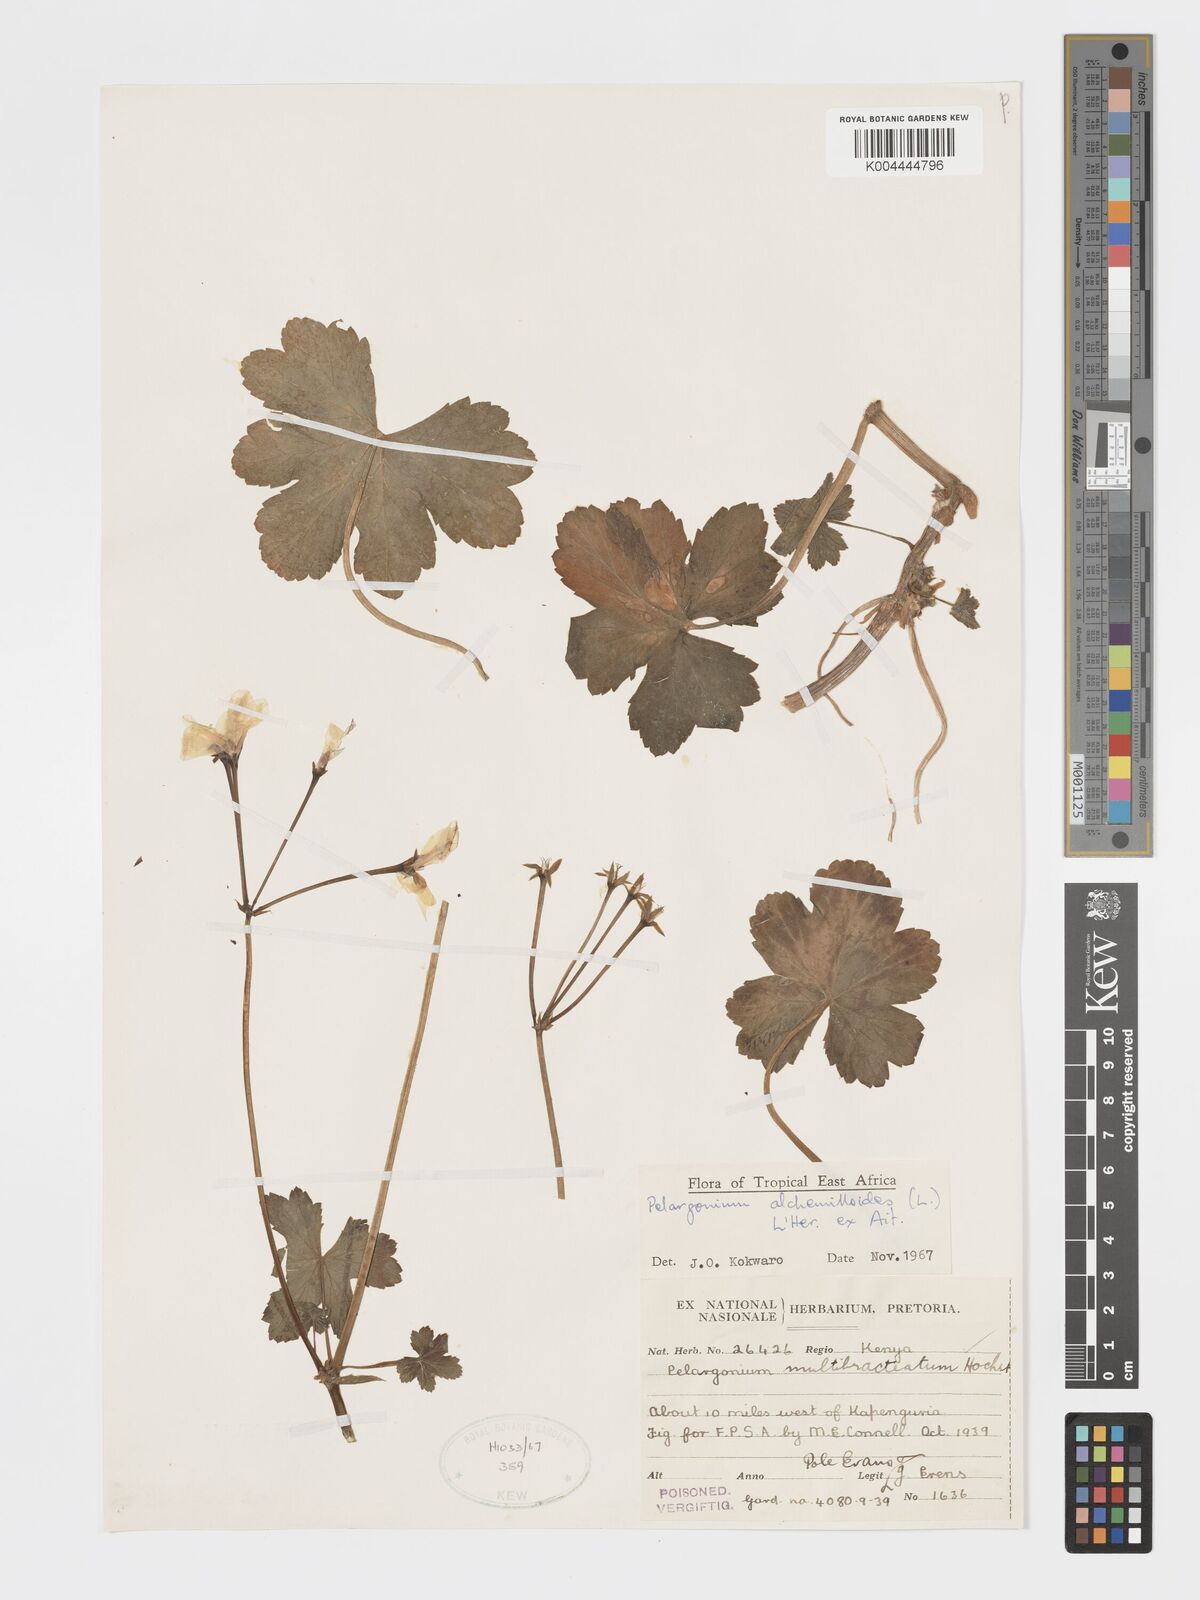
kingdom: Plantae
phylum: Tracheophyta
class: Magnoliopsida
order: Geraniales
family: Geraniaceae
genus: Pelargonium
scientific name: Pelargonium alchemilloides
